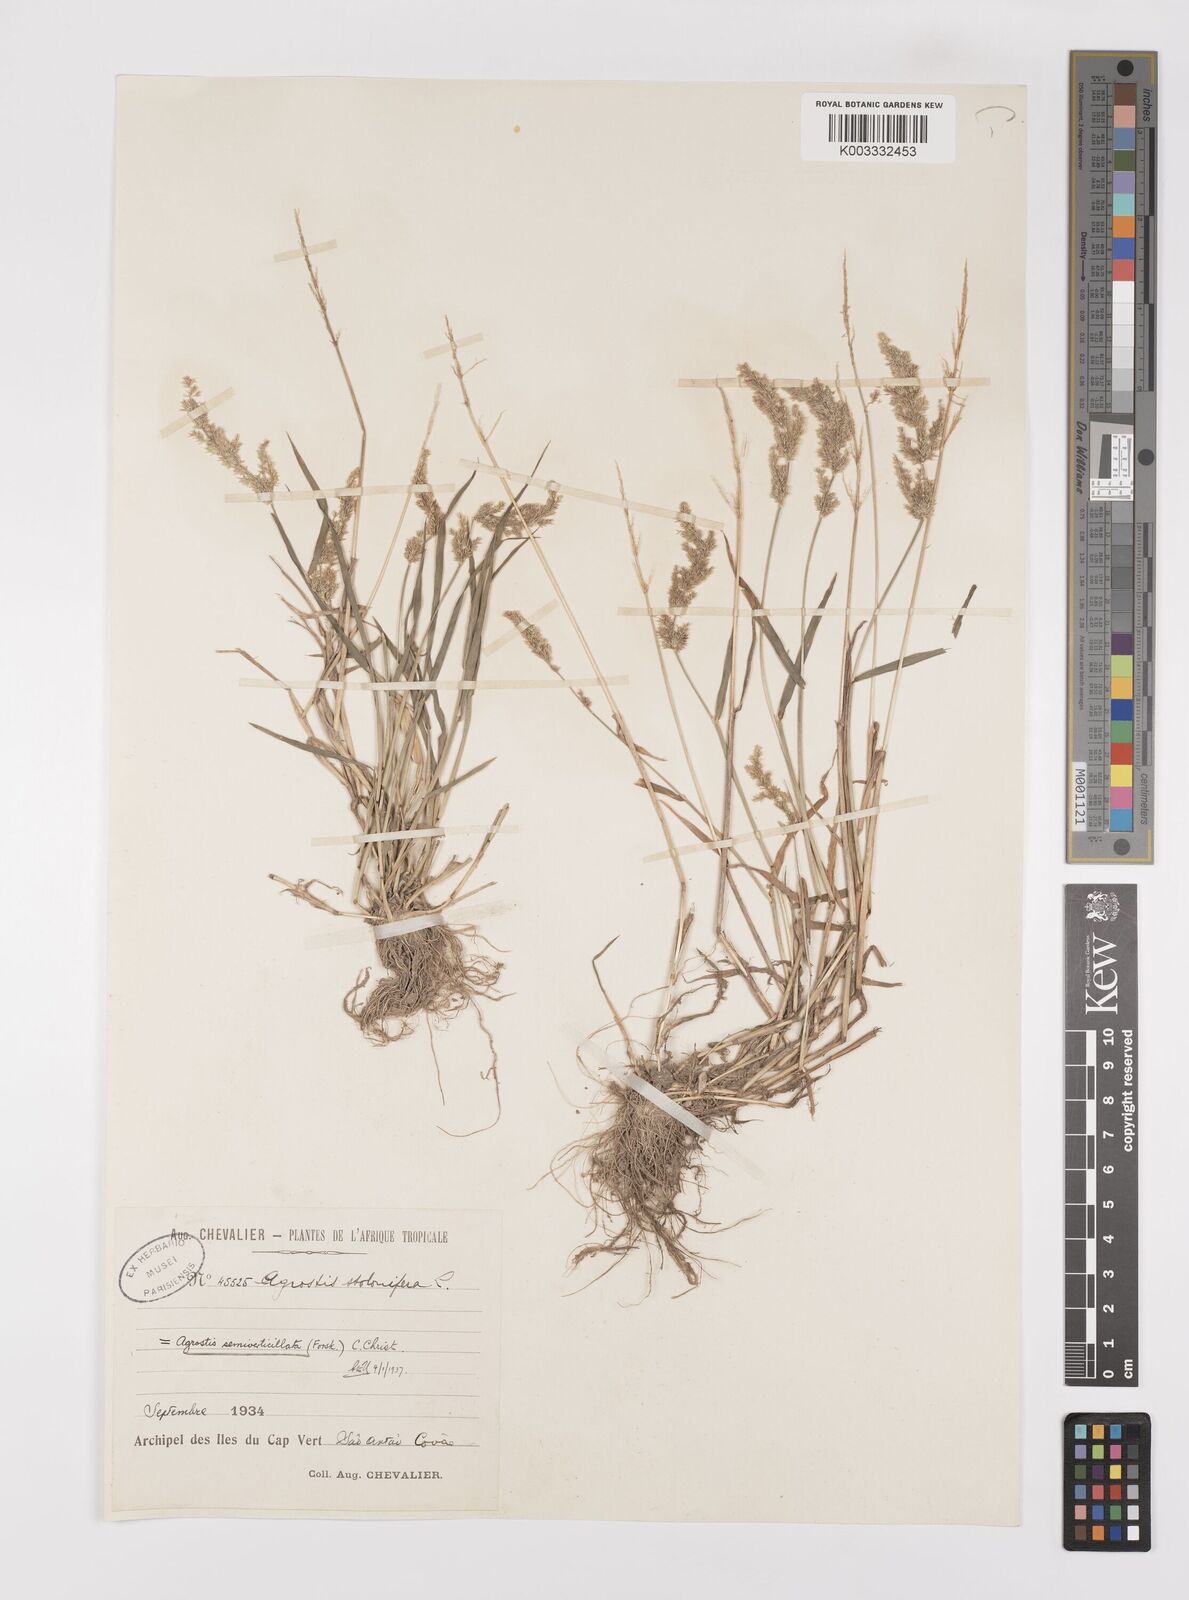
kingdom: Plantae
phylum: Tracheophyta
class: Liliopsida
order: Poales
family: Poaceae
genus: Polypogon
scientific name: Polypogon viridis
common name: Water bent
